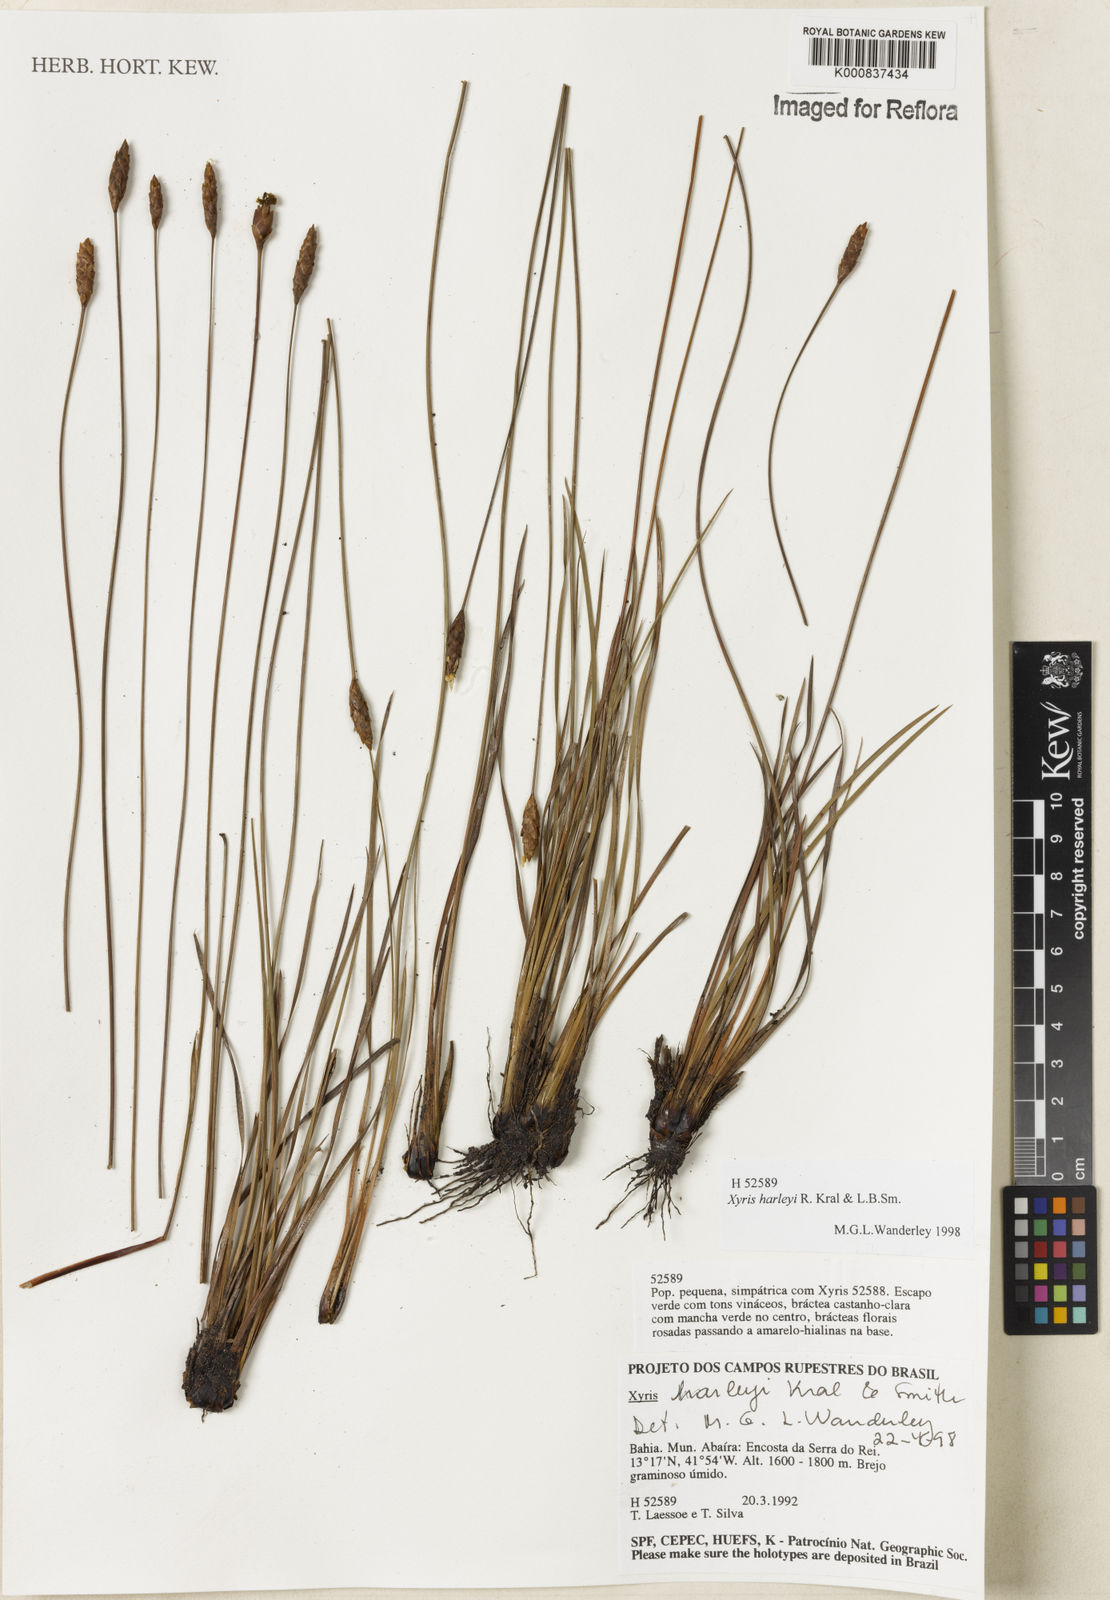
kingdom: Plantae
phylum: Tracheophyta
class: Liliopsida
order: Poales
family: Xyridaceae
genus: Xyris
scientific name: Xyris harleyi
